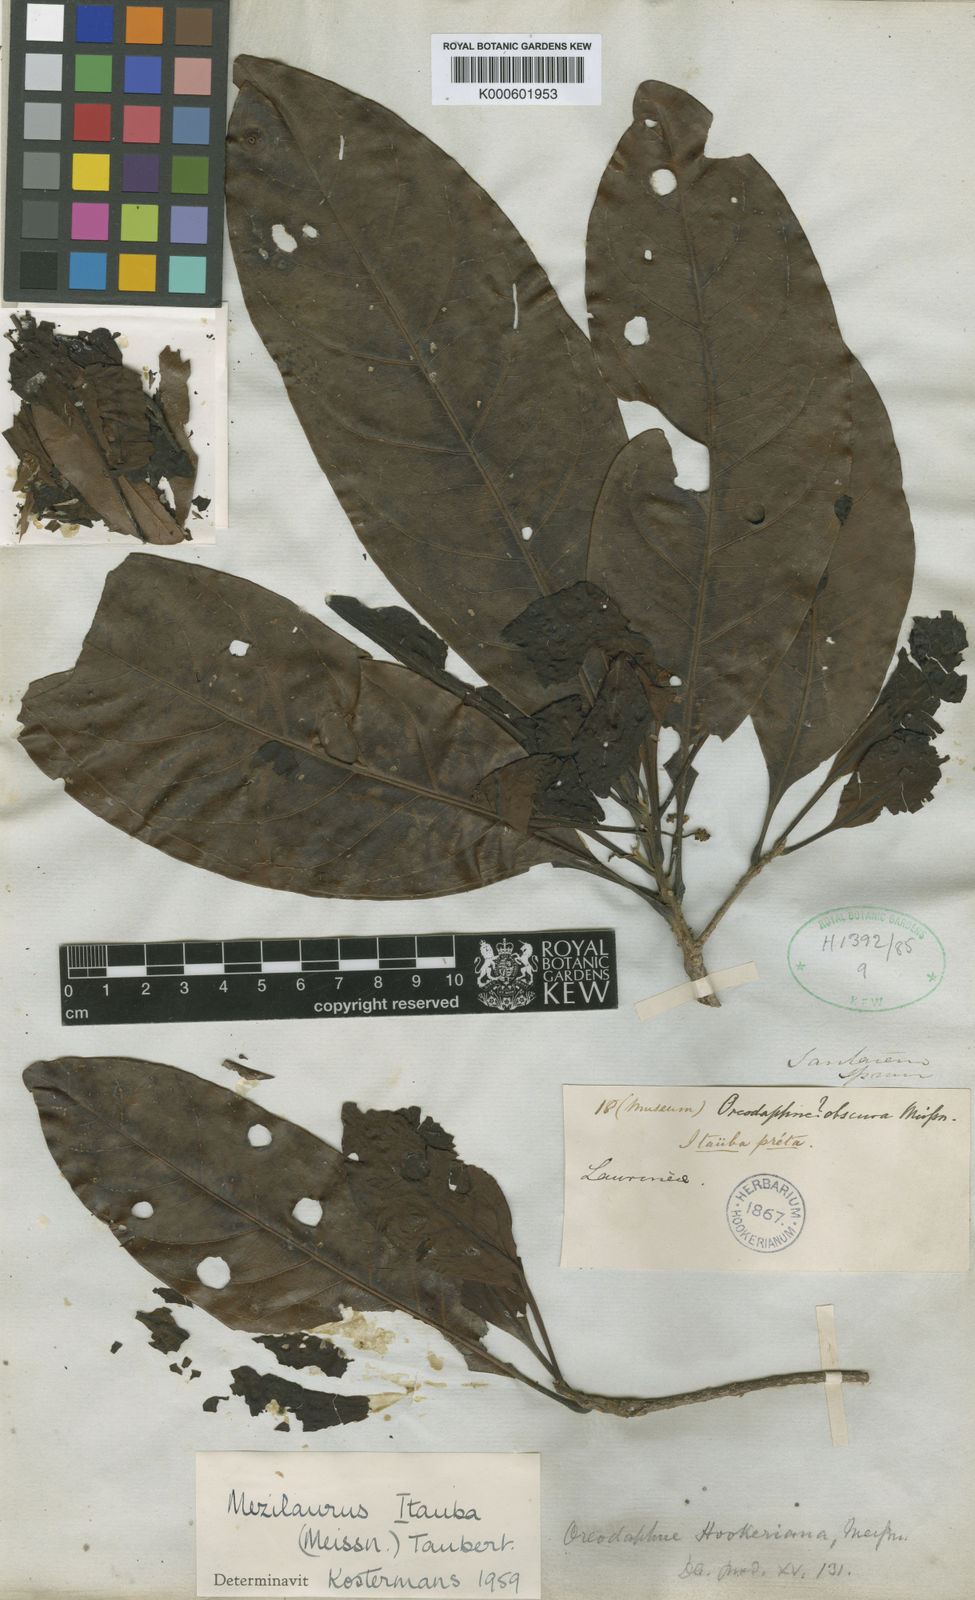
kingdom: Plantae
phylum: Tracheophyta
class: Magnoliopsida
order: Laurales
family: Lauraceae
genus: Mezilaurus
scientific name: Mezilaurus ita-uba
